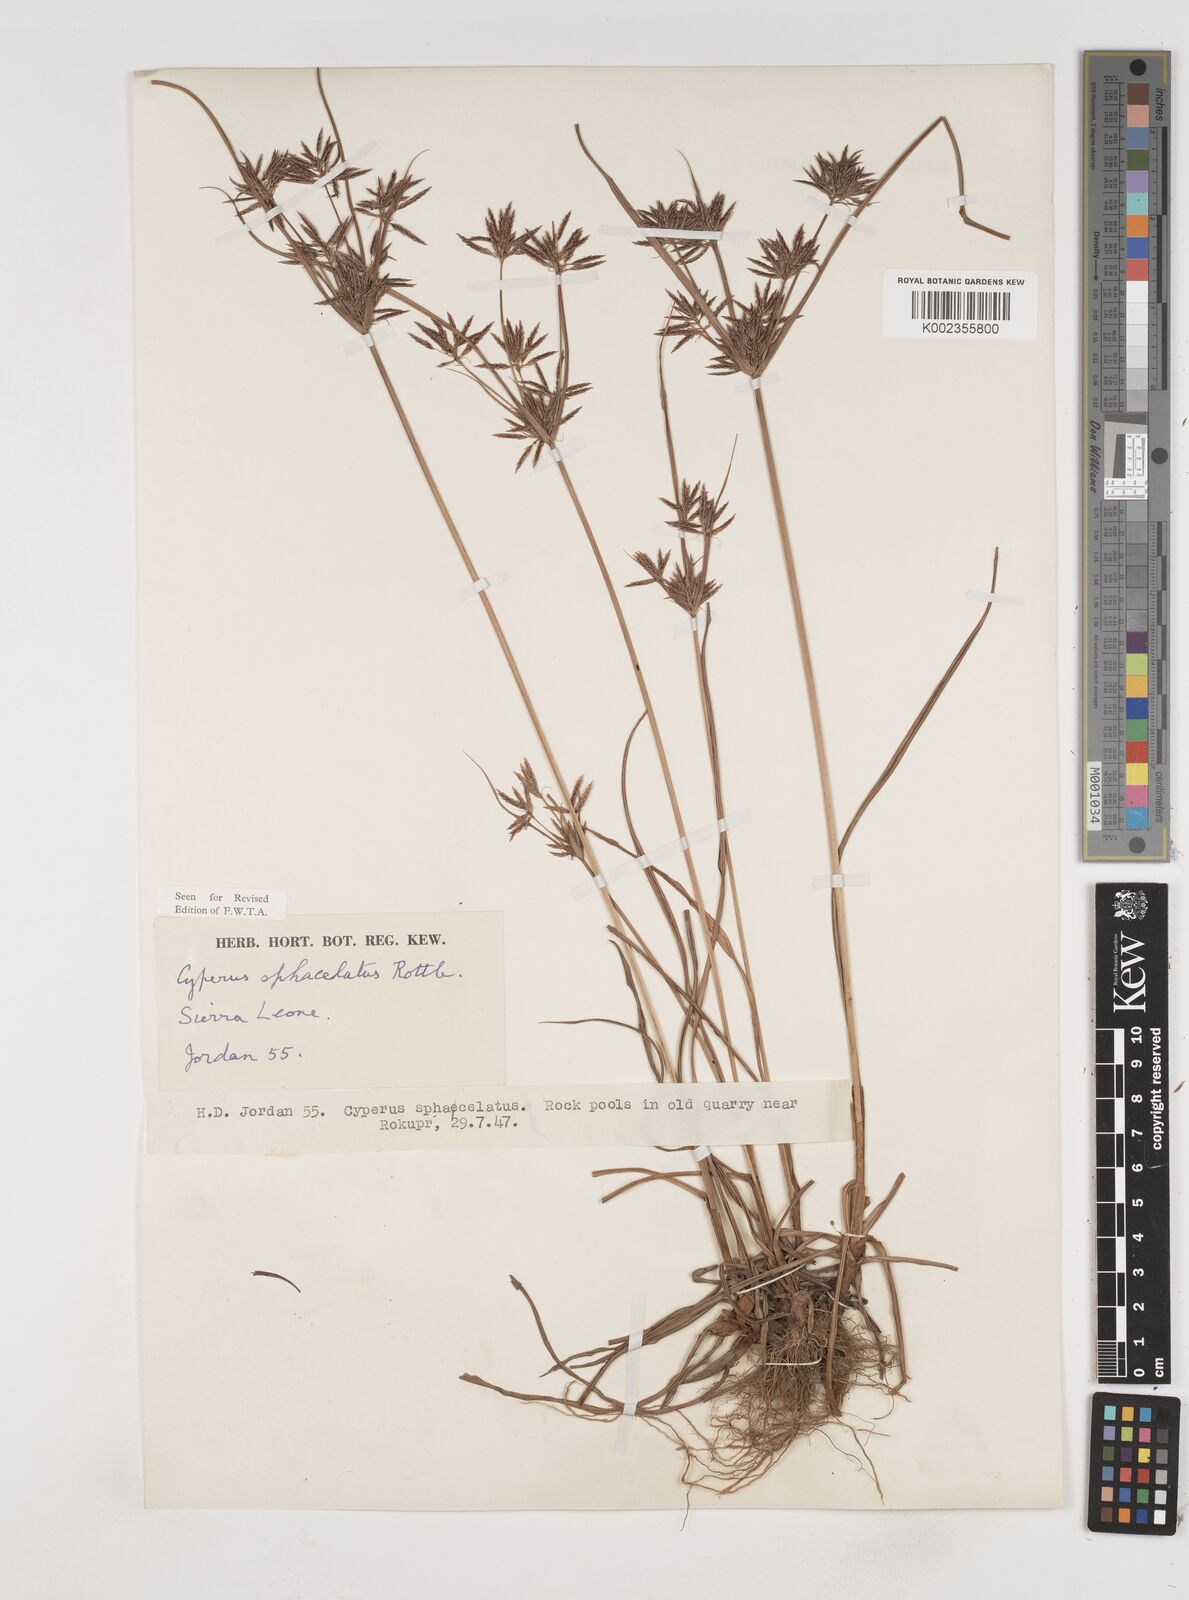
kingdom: Plantae
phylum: Tracheophyta
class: Liliopsida
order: Poales
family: Cyperaceae
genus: Cyperus
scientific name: Cyperus sphacelatus
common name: Roadside flatsedge
